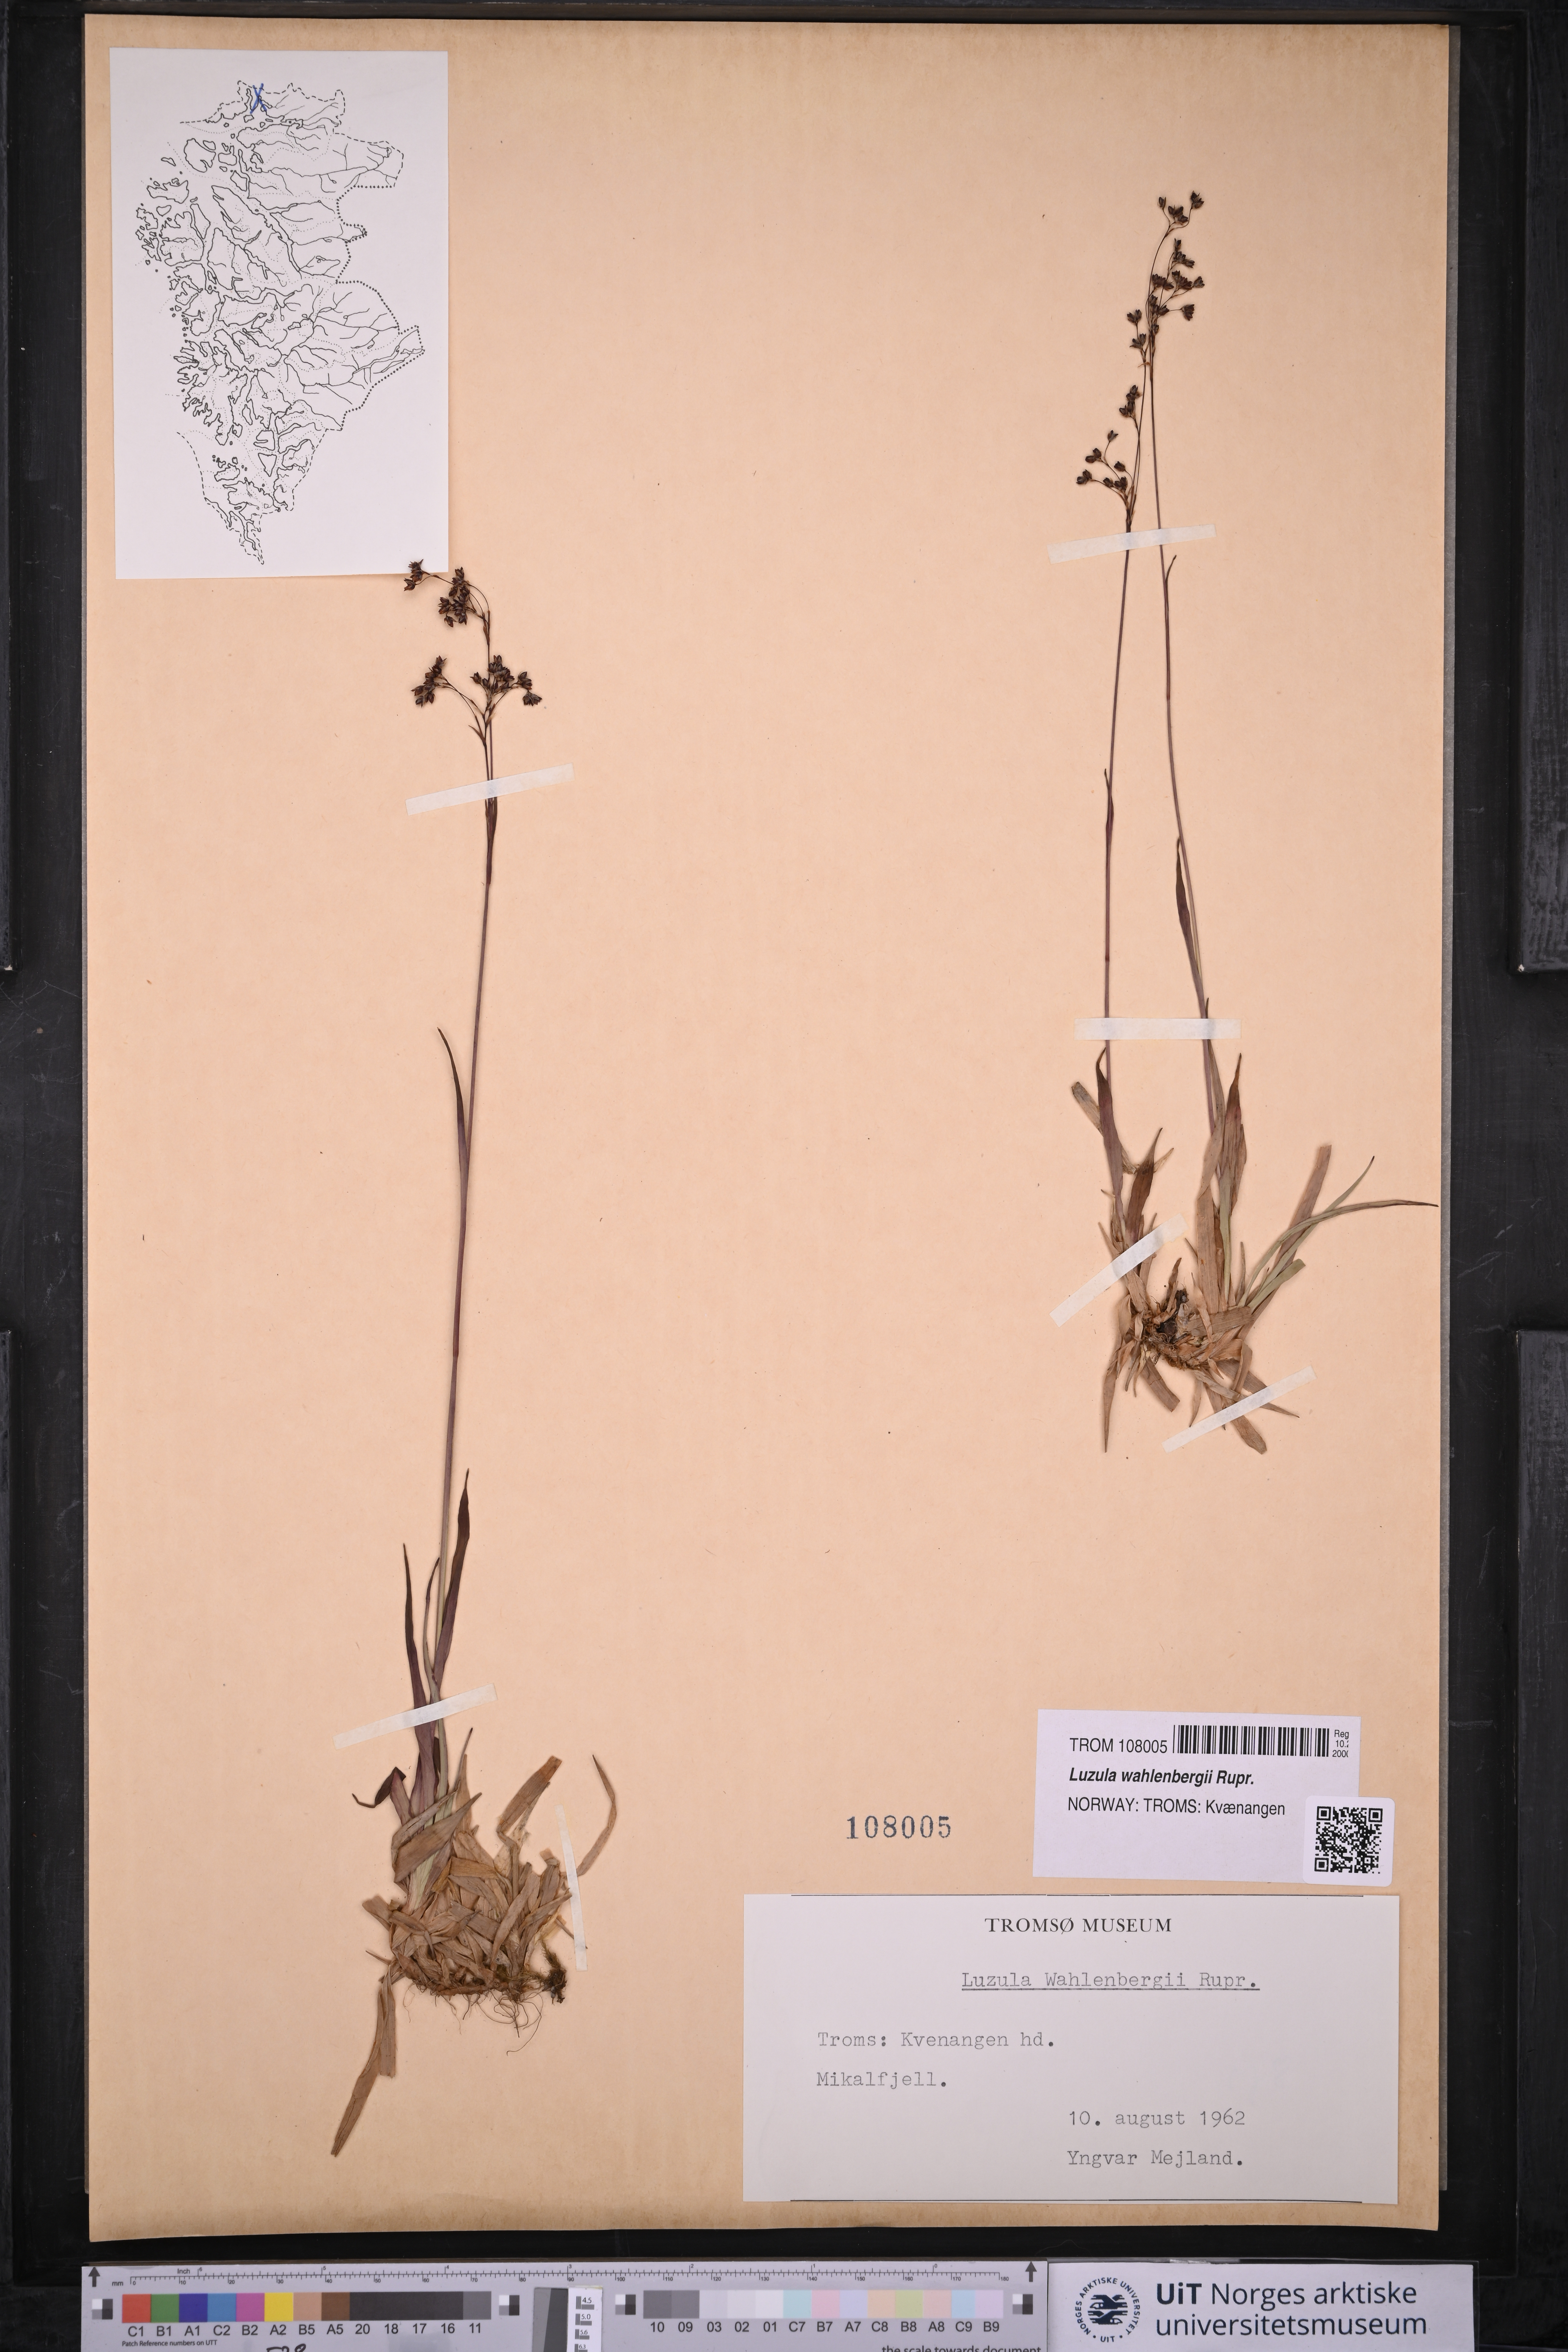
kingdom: Plantae
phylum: Tracheophyta
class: Liliopsida
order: Poales
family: Juncaceae
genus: Luzula
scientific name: Luzula wahlenbergii
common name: Wahlenberg's wood-rush
